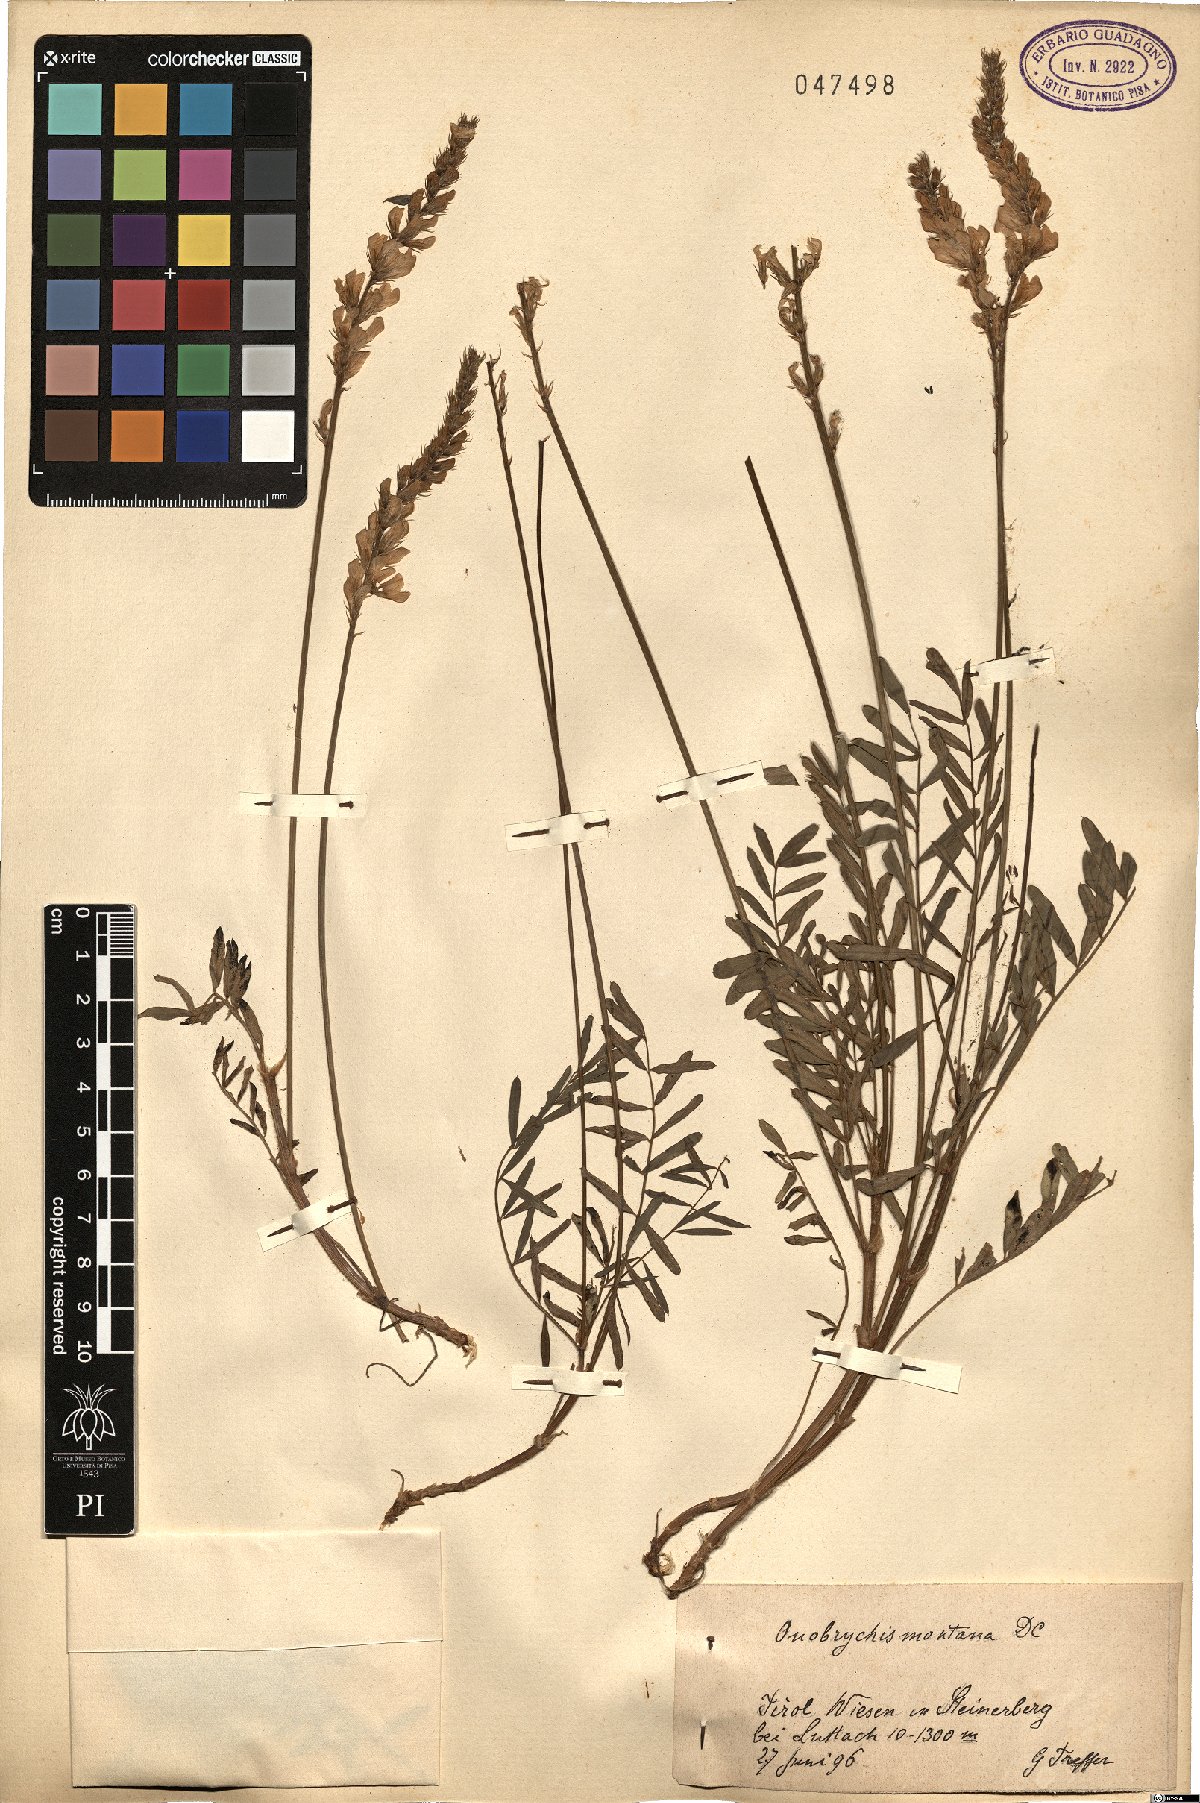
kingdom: Plantae
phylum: Tracheophyta
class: Magnoliopsida
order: Fabales
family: Fabaceae
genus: Onobrychis
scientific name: Onobrychis montana
